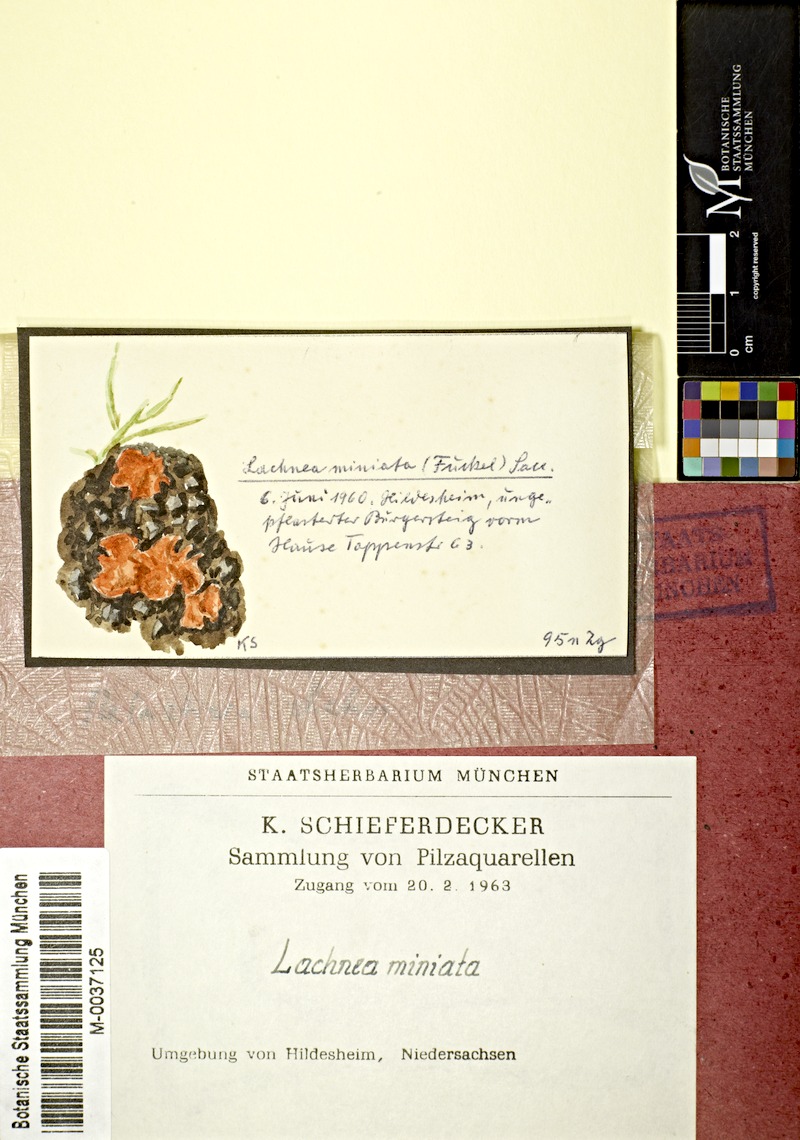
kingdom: Fungi
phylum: Ascomycota
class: Pezizomycetes
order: Pezizales
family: Pyronemataceae
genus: Melastiza
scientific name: Melastiza chateri
